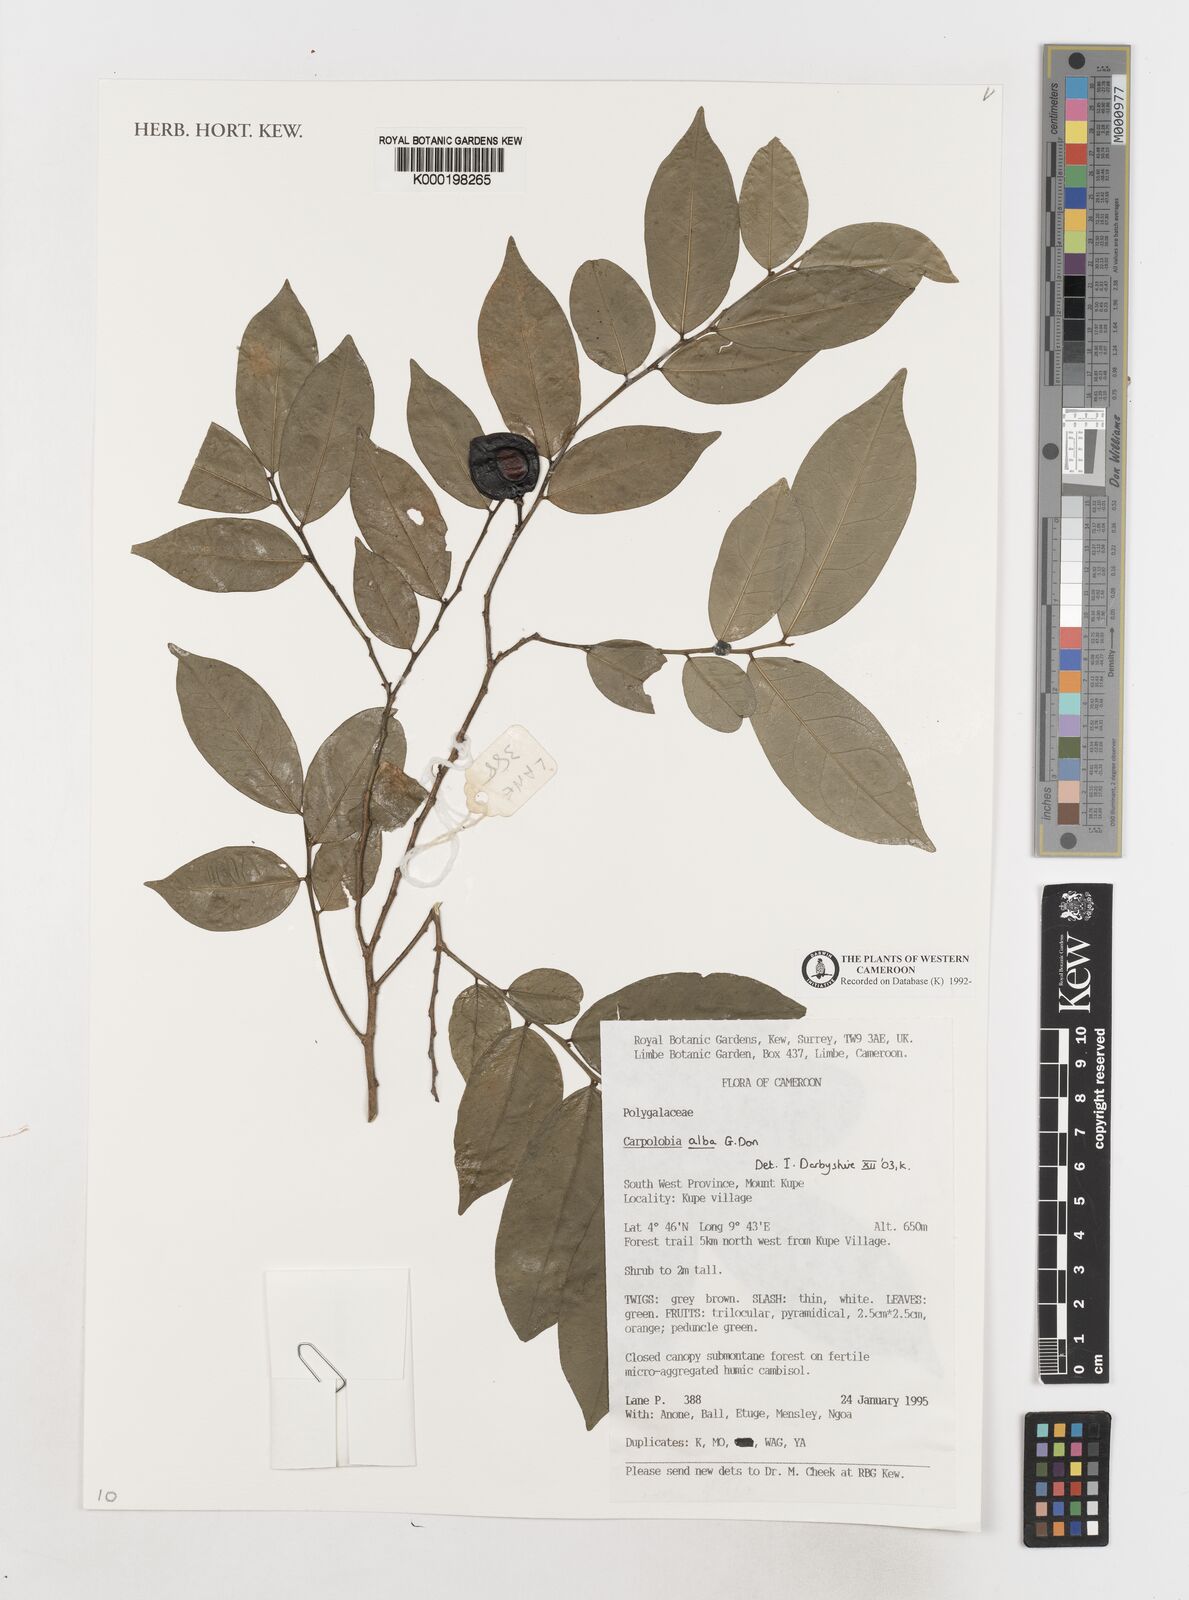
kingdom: Plantae
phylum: Tracheophyta
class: Magnoliopsida
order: Fabales
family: Polygalaceae
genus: Carpolobia
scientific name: Carpolobia alba
